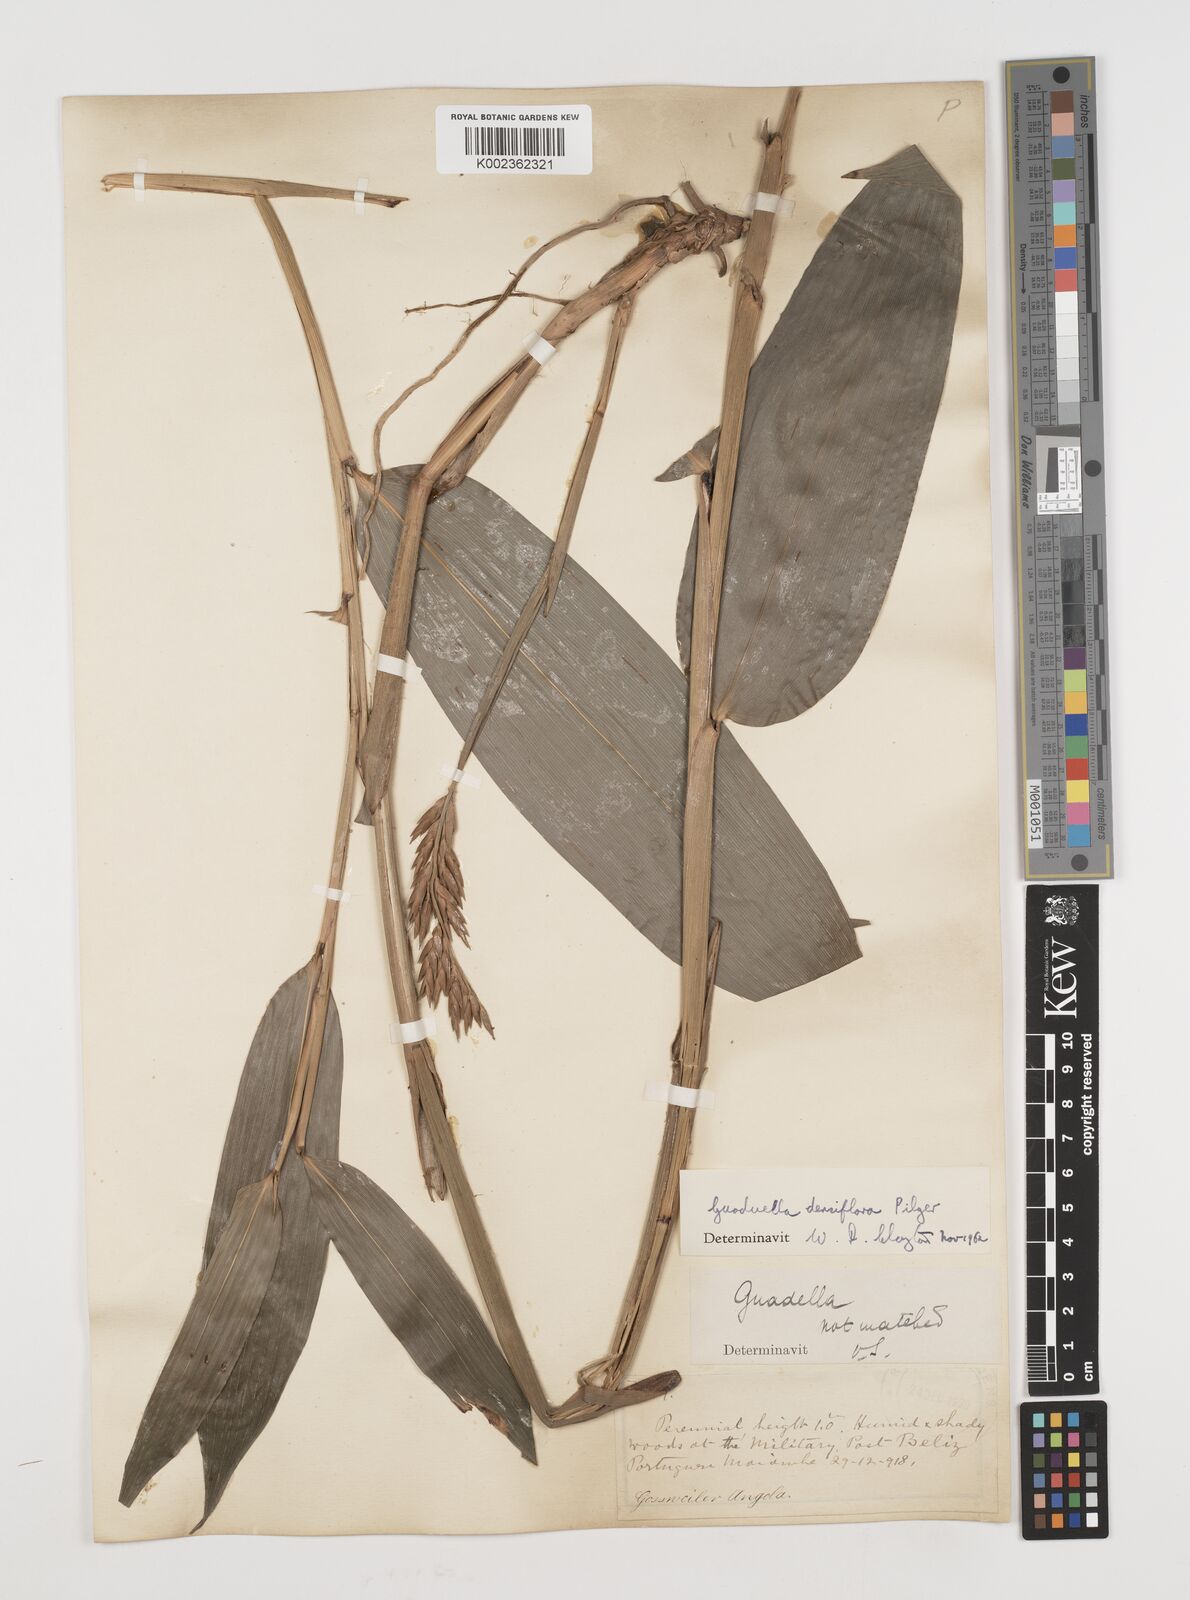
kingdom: Plantae
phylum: Tracheophyta
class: Liliopsida
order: Poales
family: Poaceae
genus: Guaduella
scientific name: Guaduella densiflora
